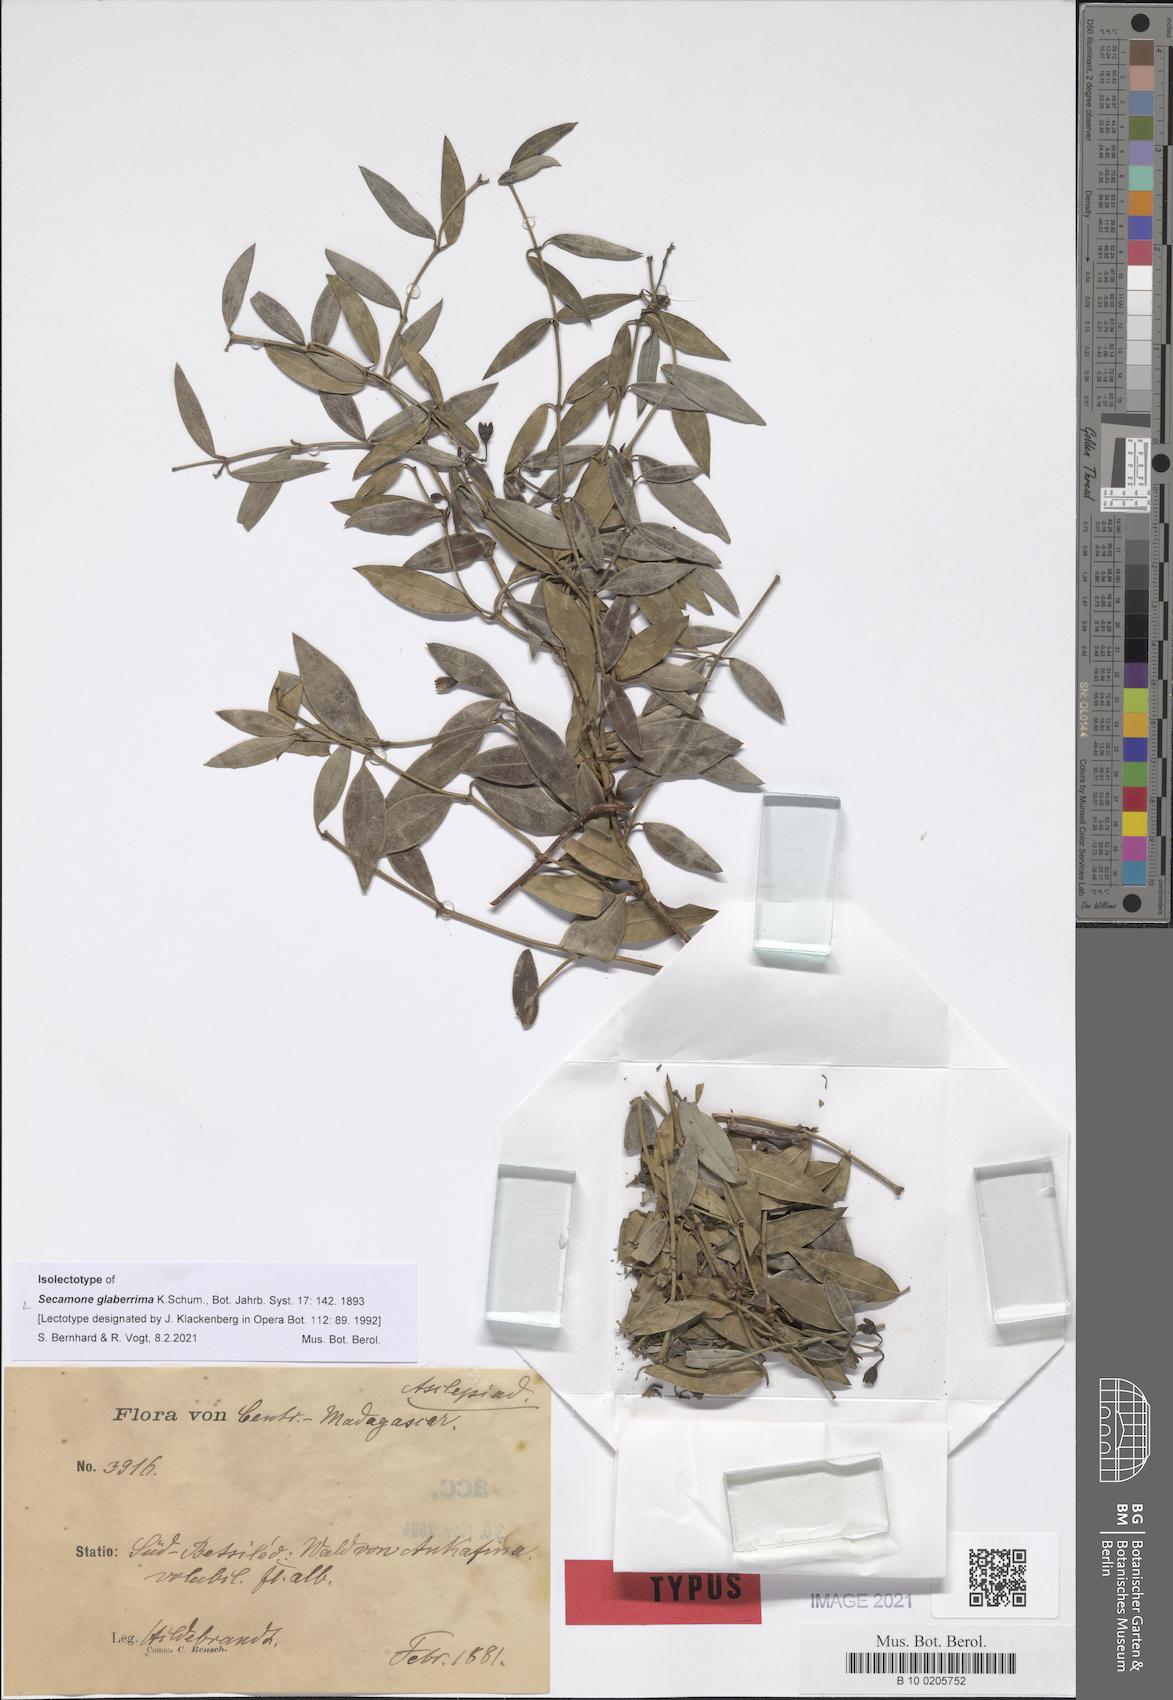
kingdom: Plantae
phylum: Tracheophyta
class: Magnoliopsida
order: Gentianales
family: Apocynaceae
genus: Secamone
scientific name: Secamone glaberrima
